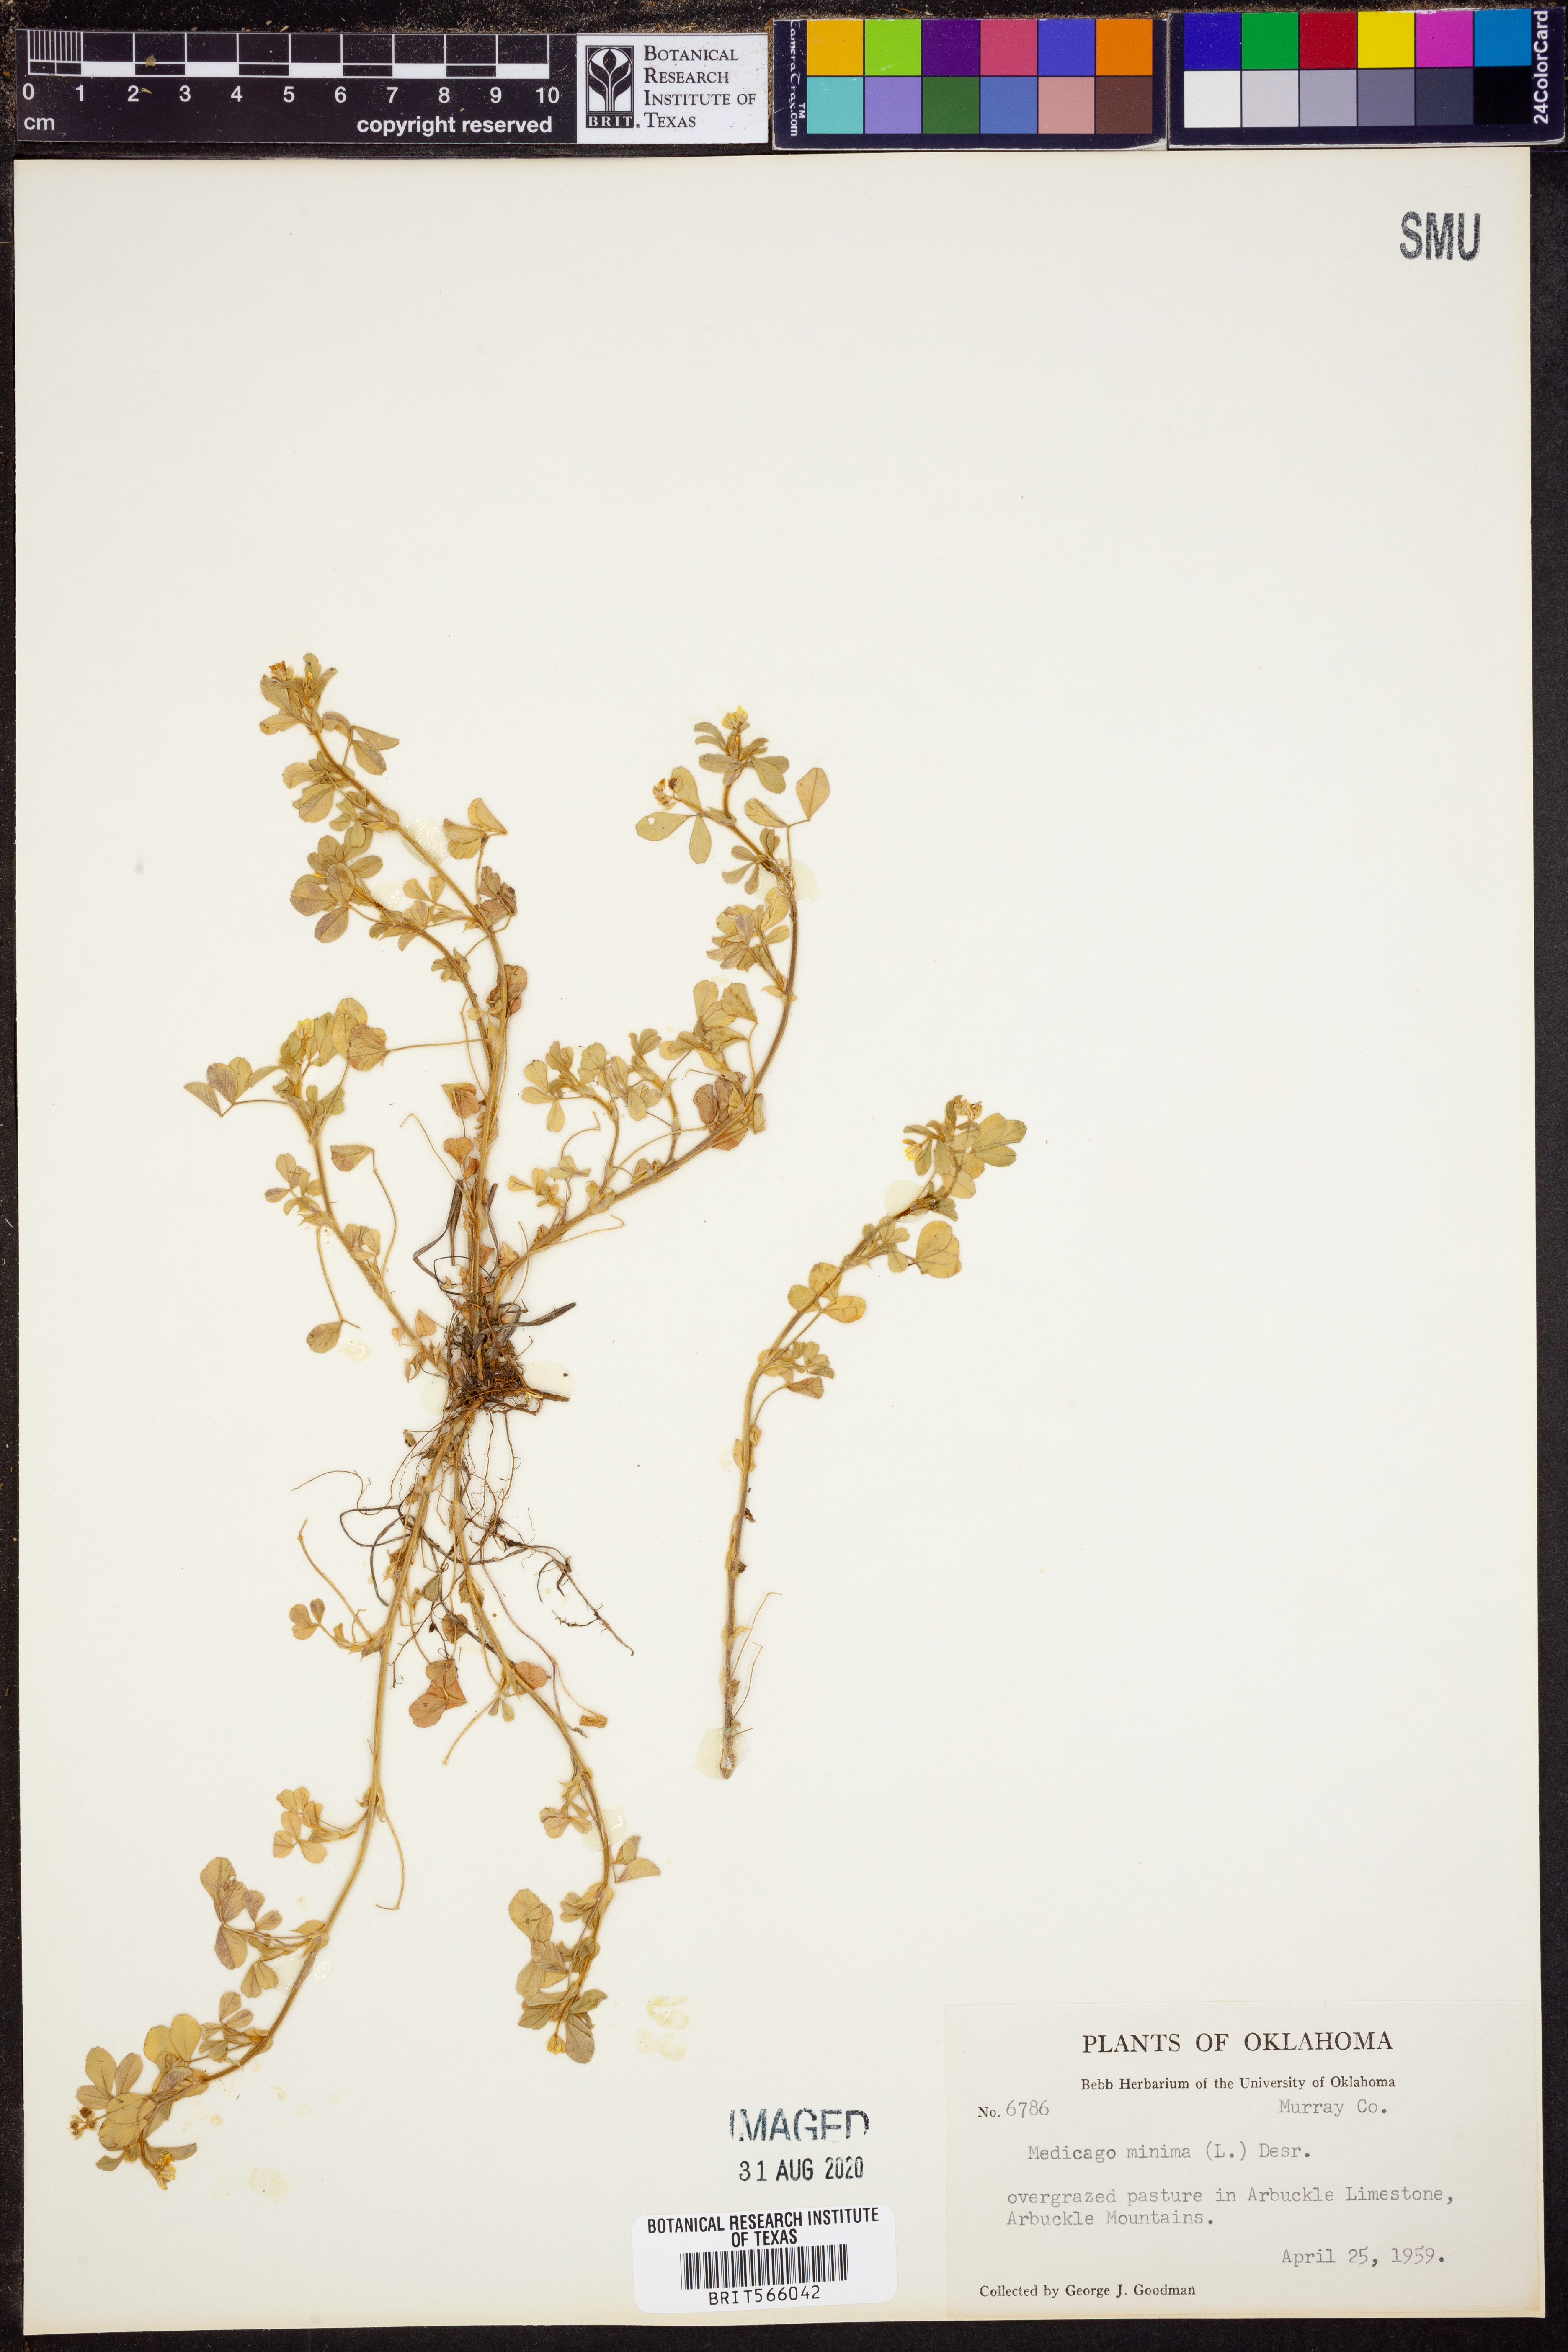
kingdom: Plantae
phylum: Tracheophyta
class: Magnoliopsida
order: Fabales
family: Fabaceae
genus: Medicago
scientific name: Medicago minima
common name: Little bur-clover
